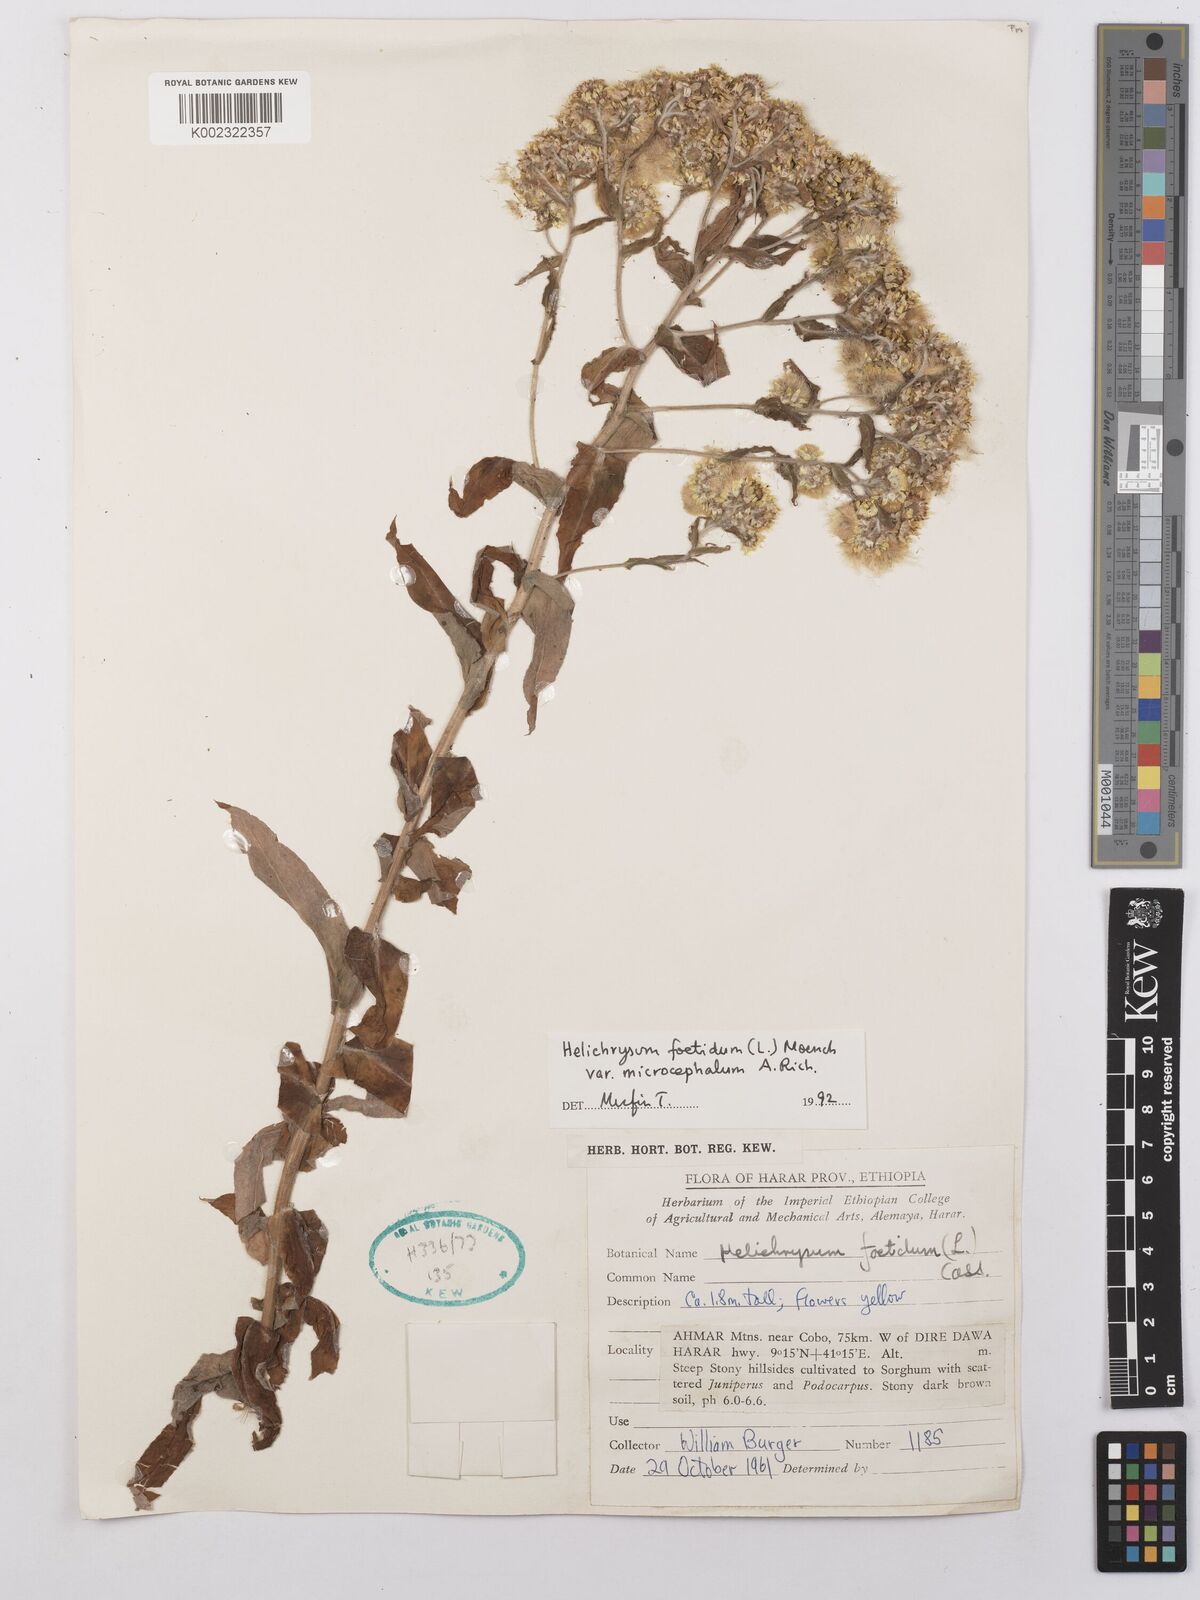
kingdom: Plantae
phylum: Tracheophyta
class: Magnoliopsida
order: Asterales
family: Asteraceae
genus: Helichrysum
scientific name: Helichrysum foetidum
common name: Stinking everlasting
